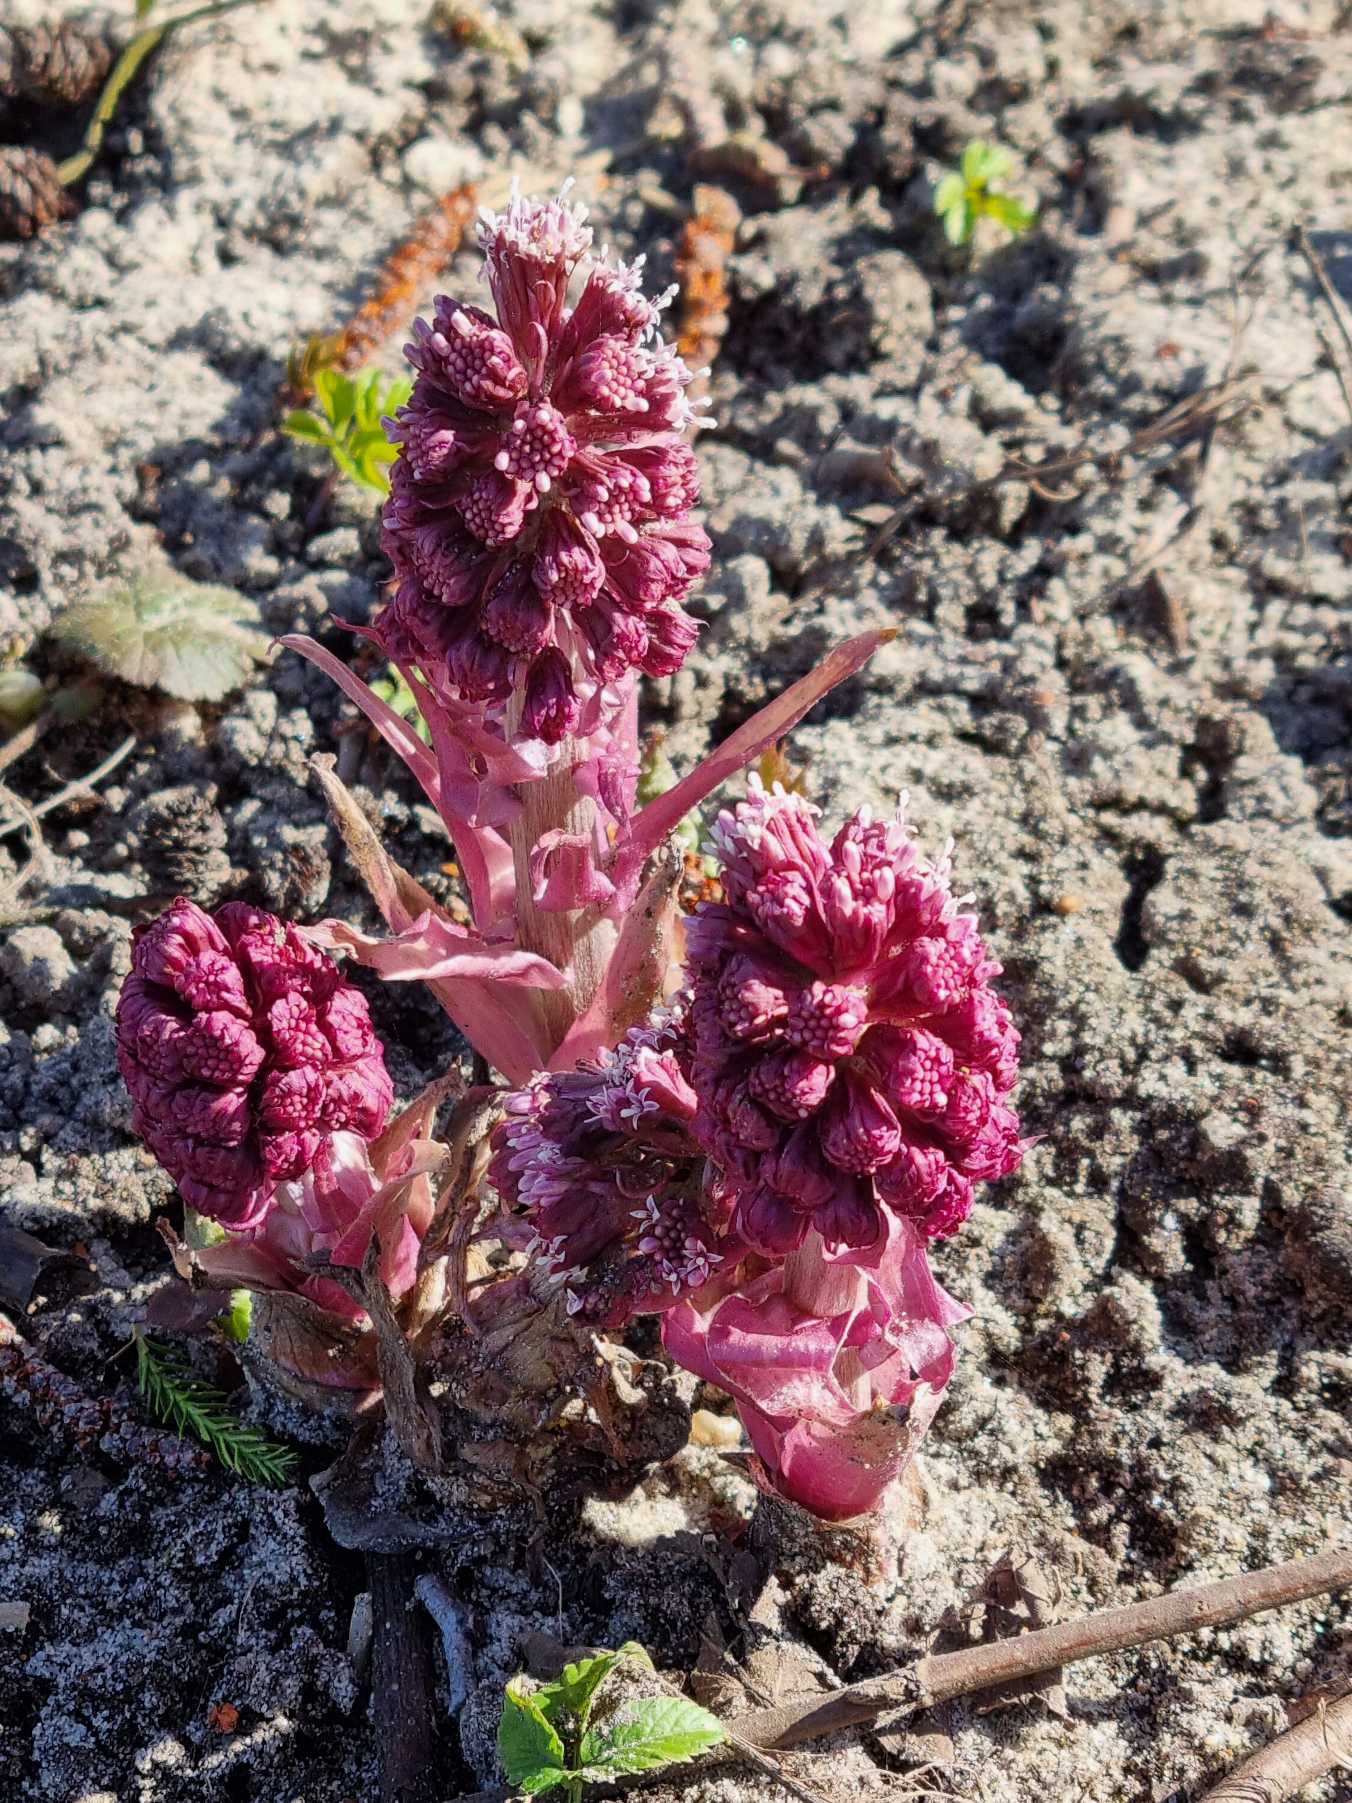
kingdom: Plantae
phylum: Tracheophyta
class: Magnoliopsida
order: Asterales
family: Asteraceae
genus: Petasites
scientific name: Petasites hybridus
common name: Rød hestehov
